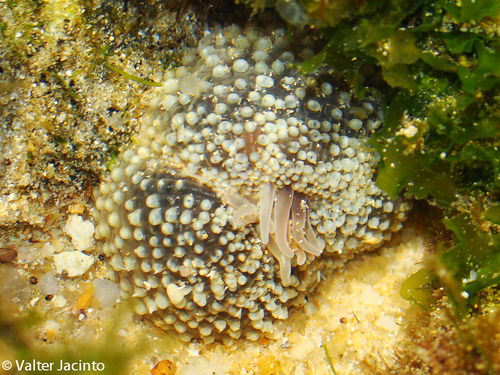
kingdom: Animalia
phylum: Cnidaria
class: Anthozoa
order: Actiniaria
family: Actiniidae
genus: Bunodactis
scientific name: Bunodactis verrucosa
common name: Gem anemone
